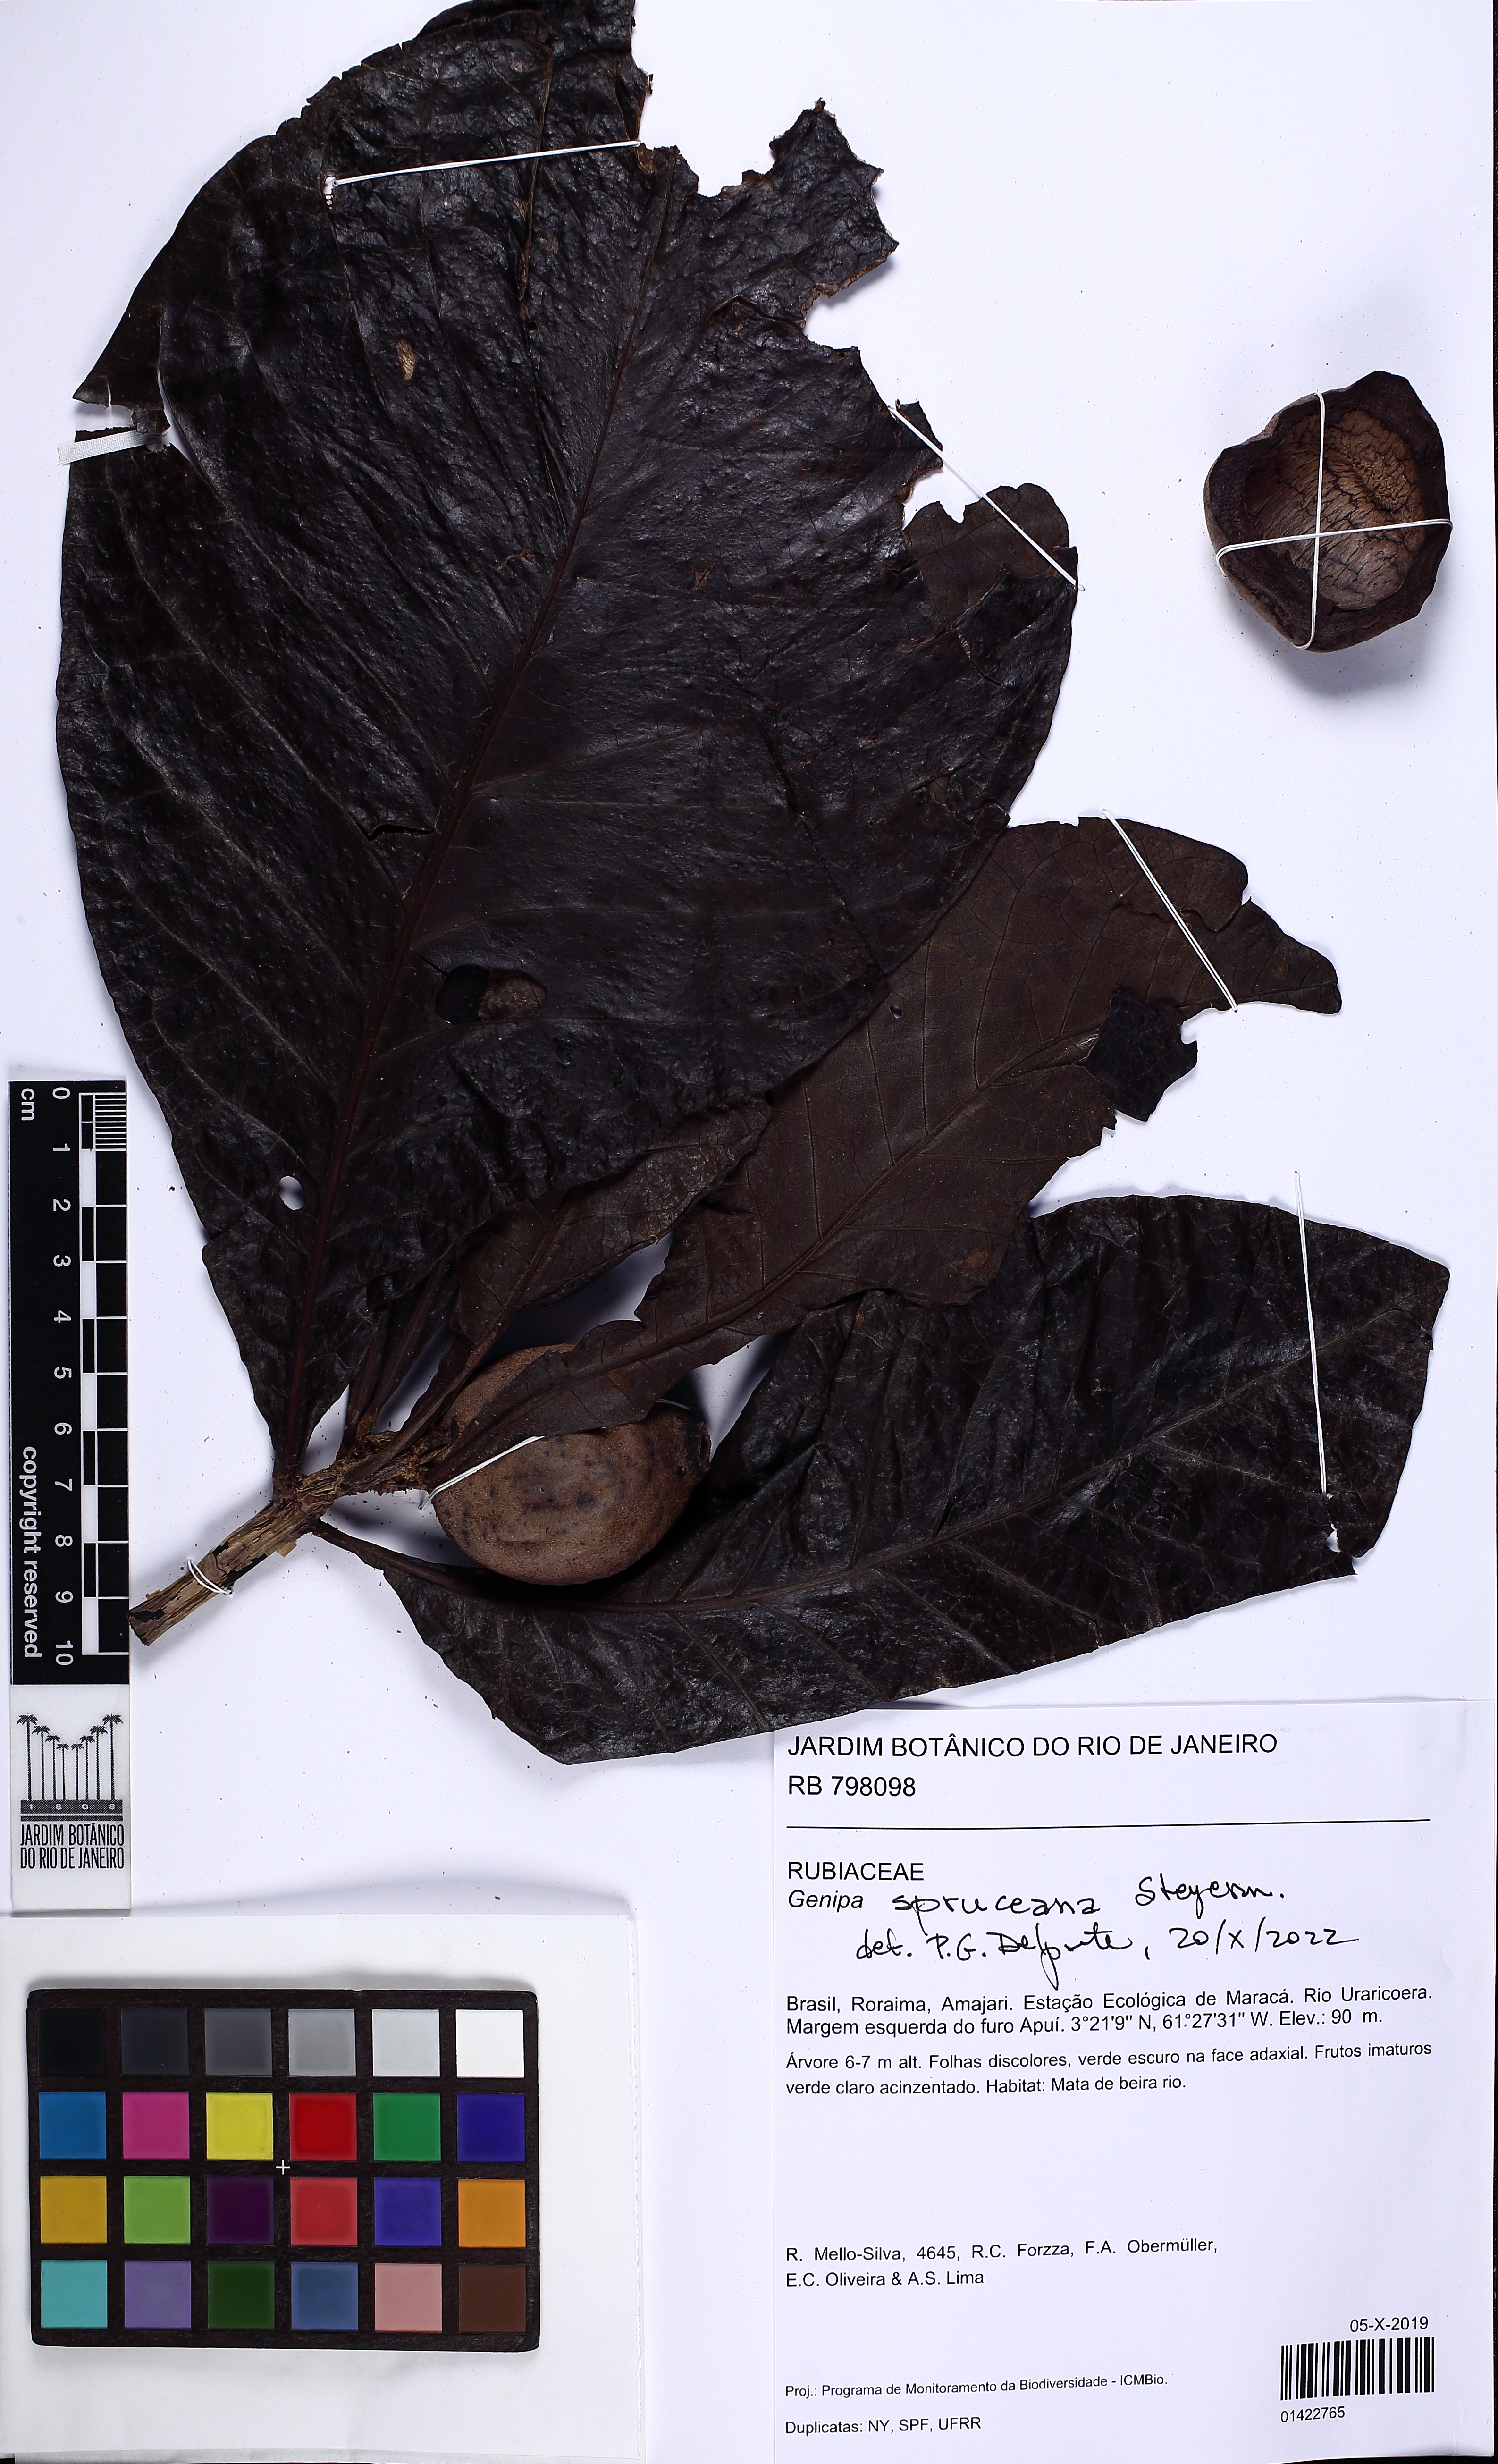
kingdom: Plantae
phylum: Tracheophyta
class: Magnoliopsida
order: Gentianales
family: Rubiaceae
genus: Genipa
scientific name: Genipa spruceana
